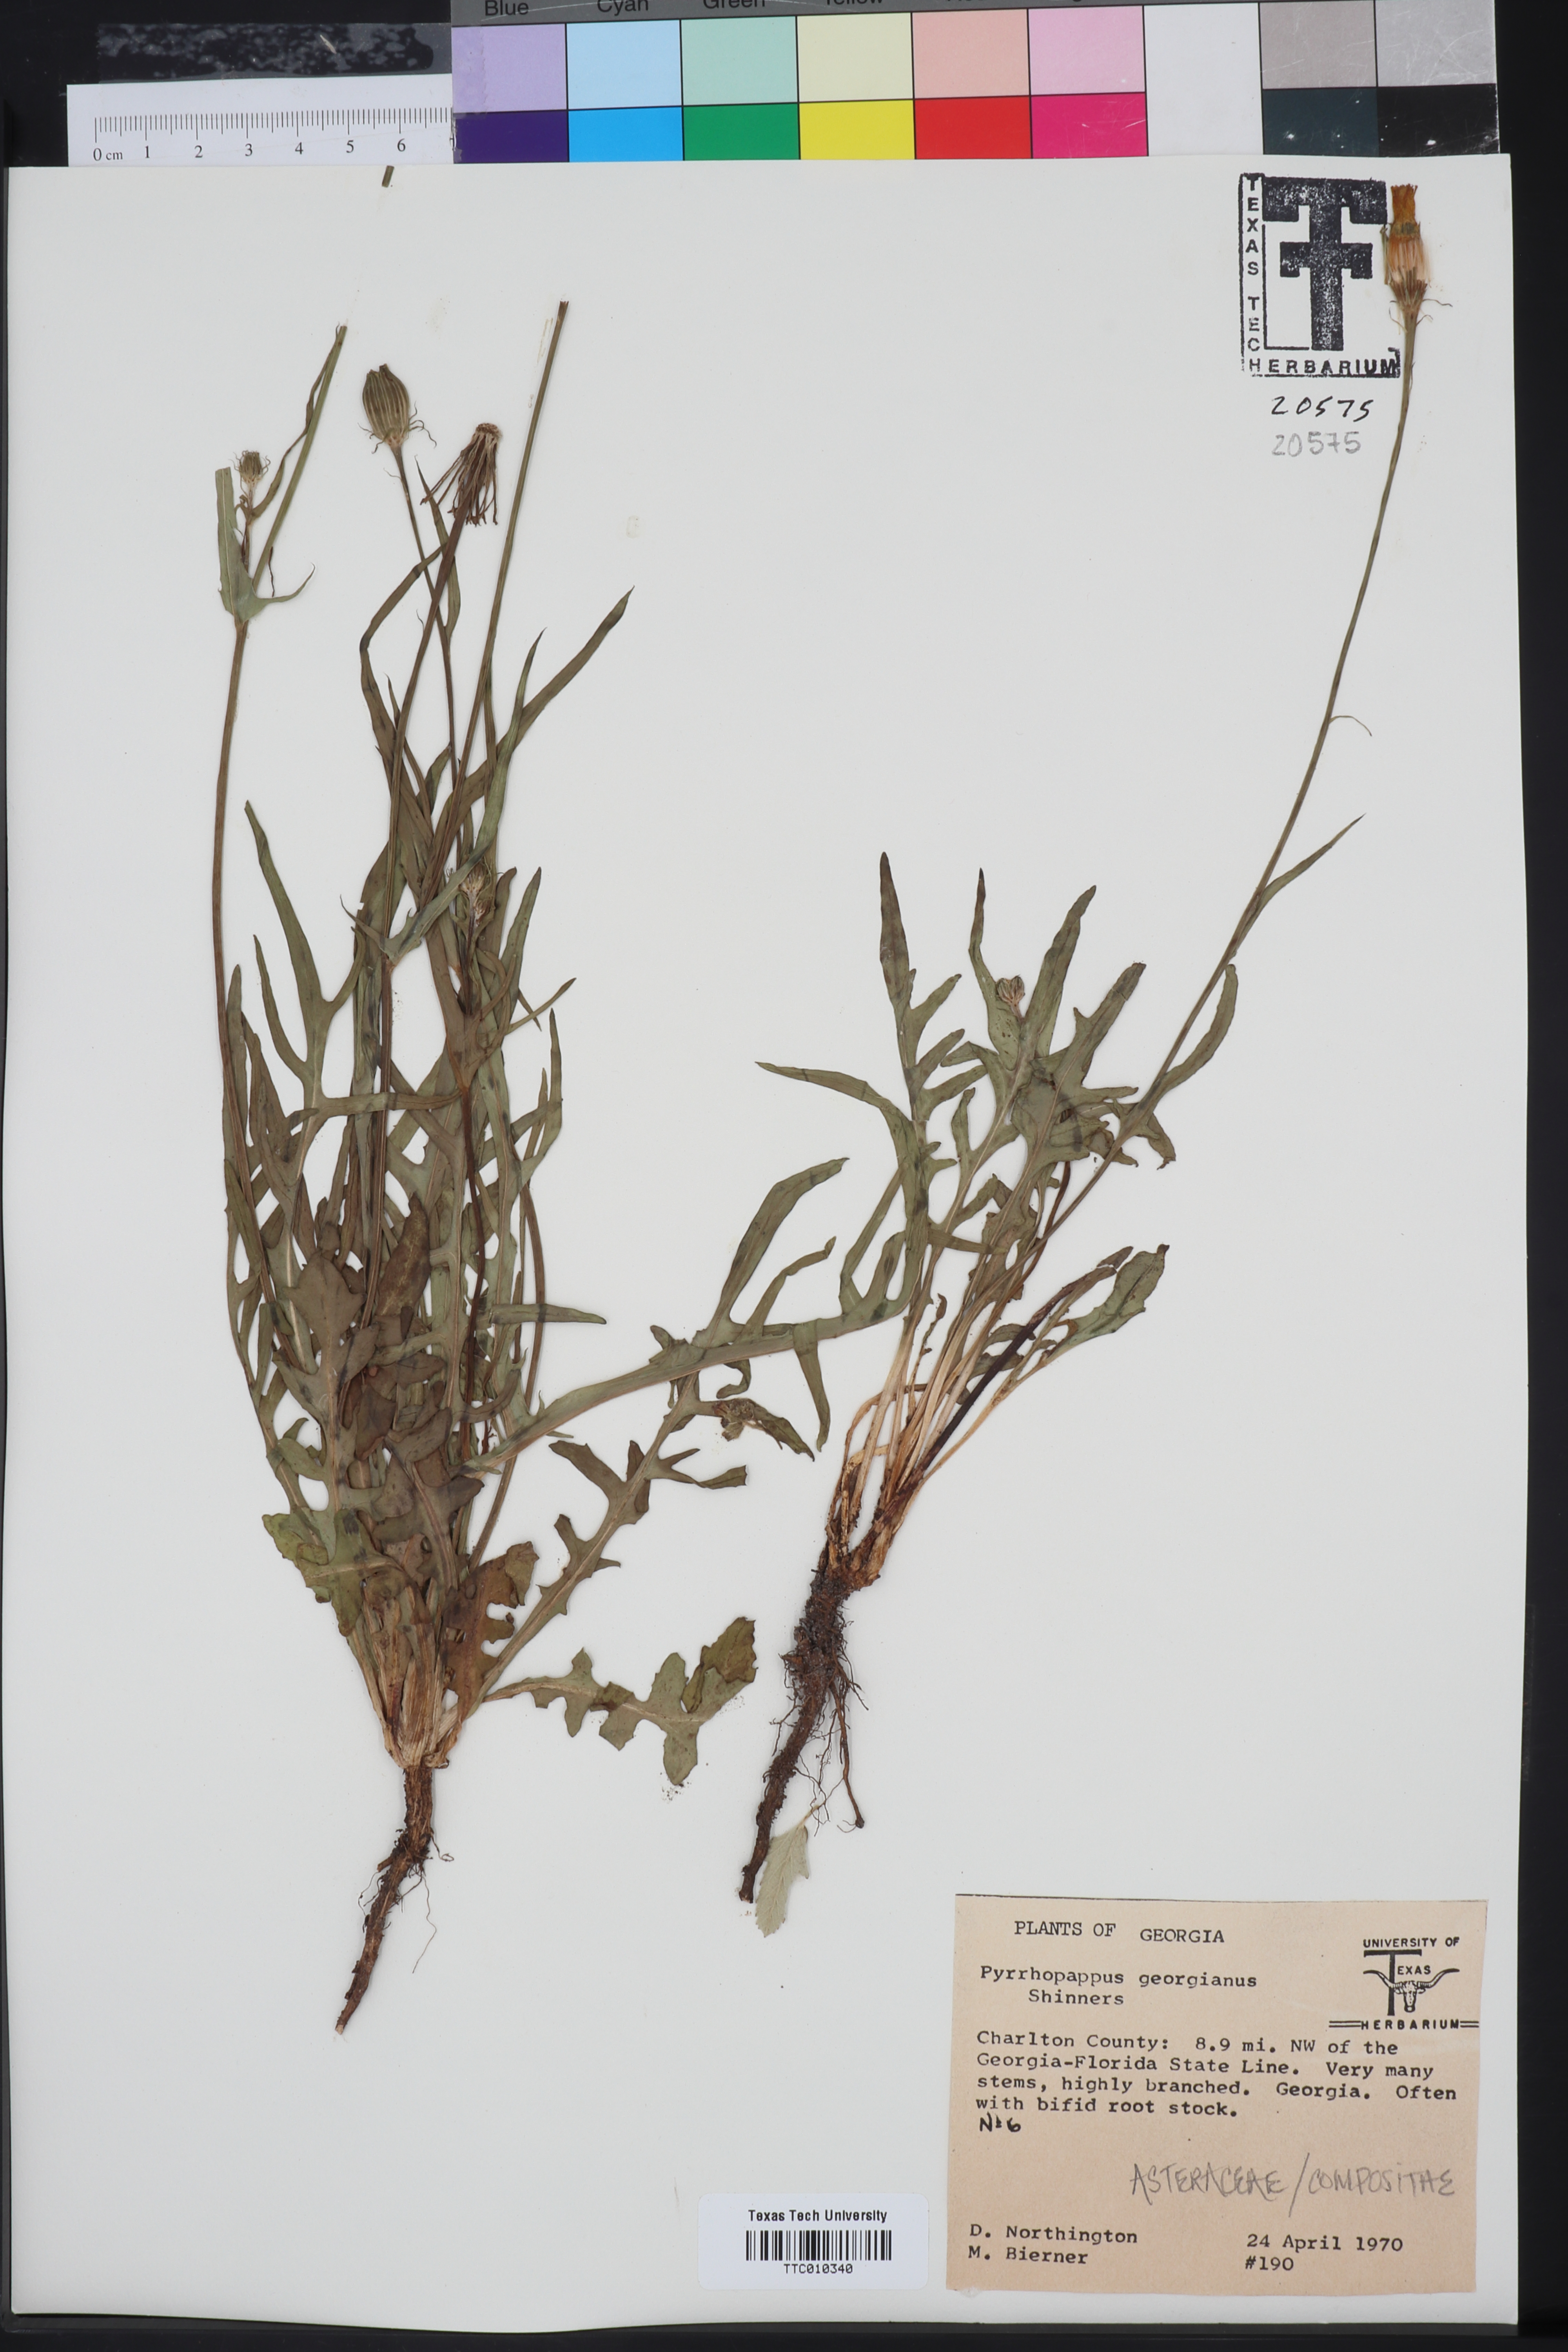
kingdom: Plantae
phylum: Tracheophyta
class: Magnoliopsida
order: Asterales
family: Asteraceae
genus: Pyrrhopappus
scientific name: Pyrrhopappus carolinianus
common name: Carolina desert-chicory
